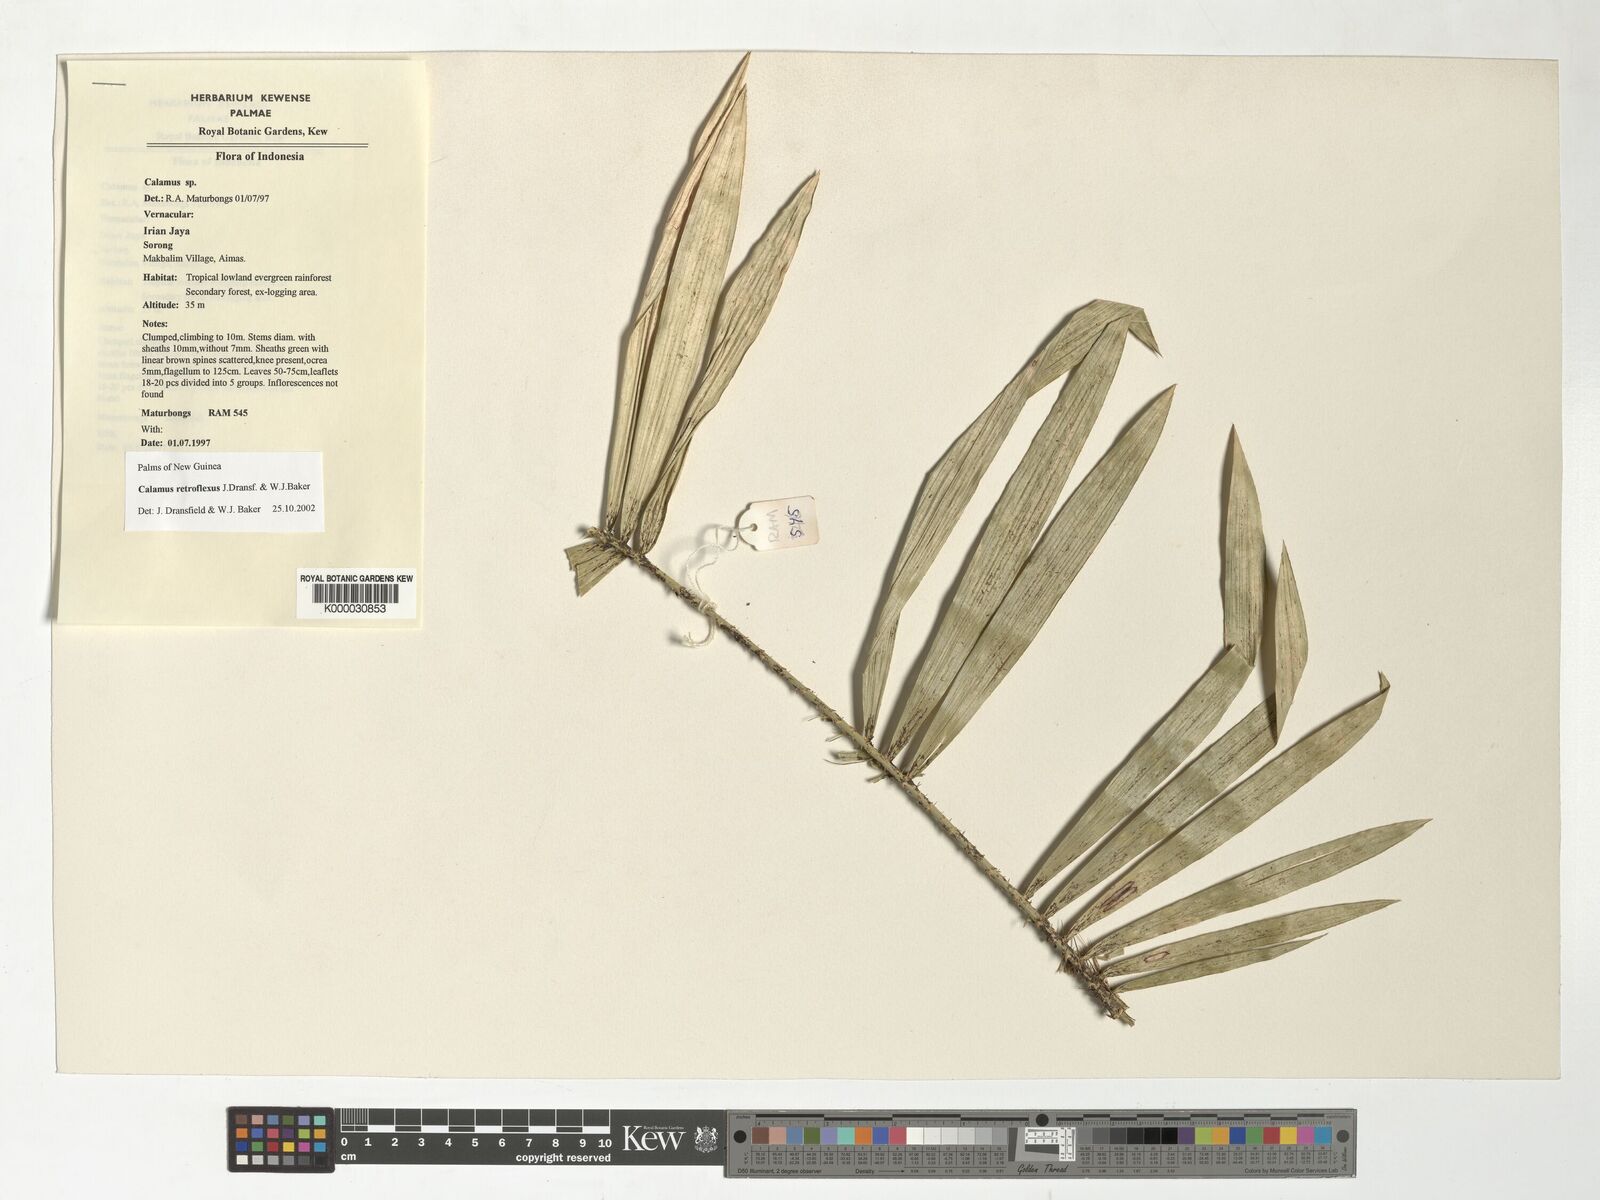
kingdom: Plantae
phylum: Tracheophyta
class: Liliopsida
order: Arecales
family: Arecaceae
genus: Calamus
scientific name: Calamus retroflexus
